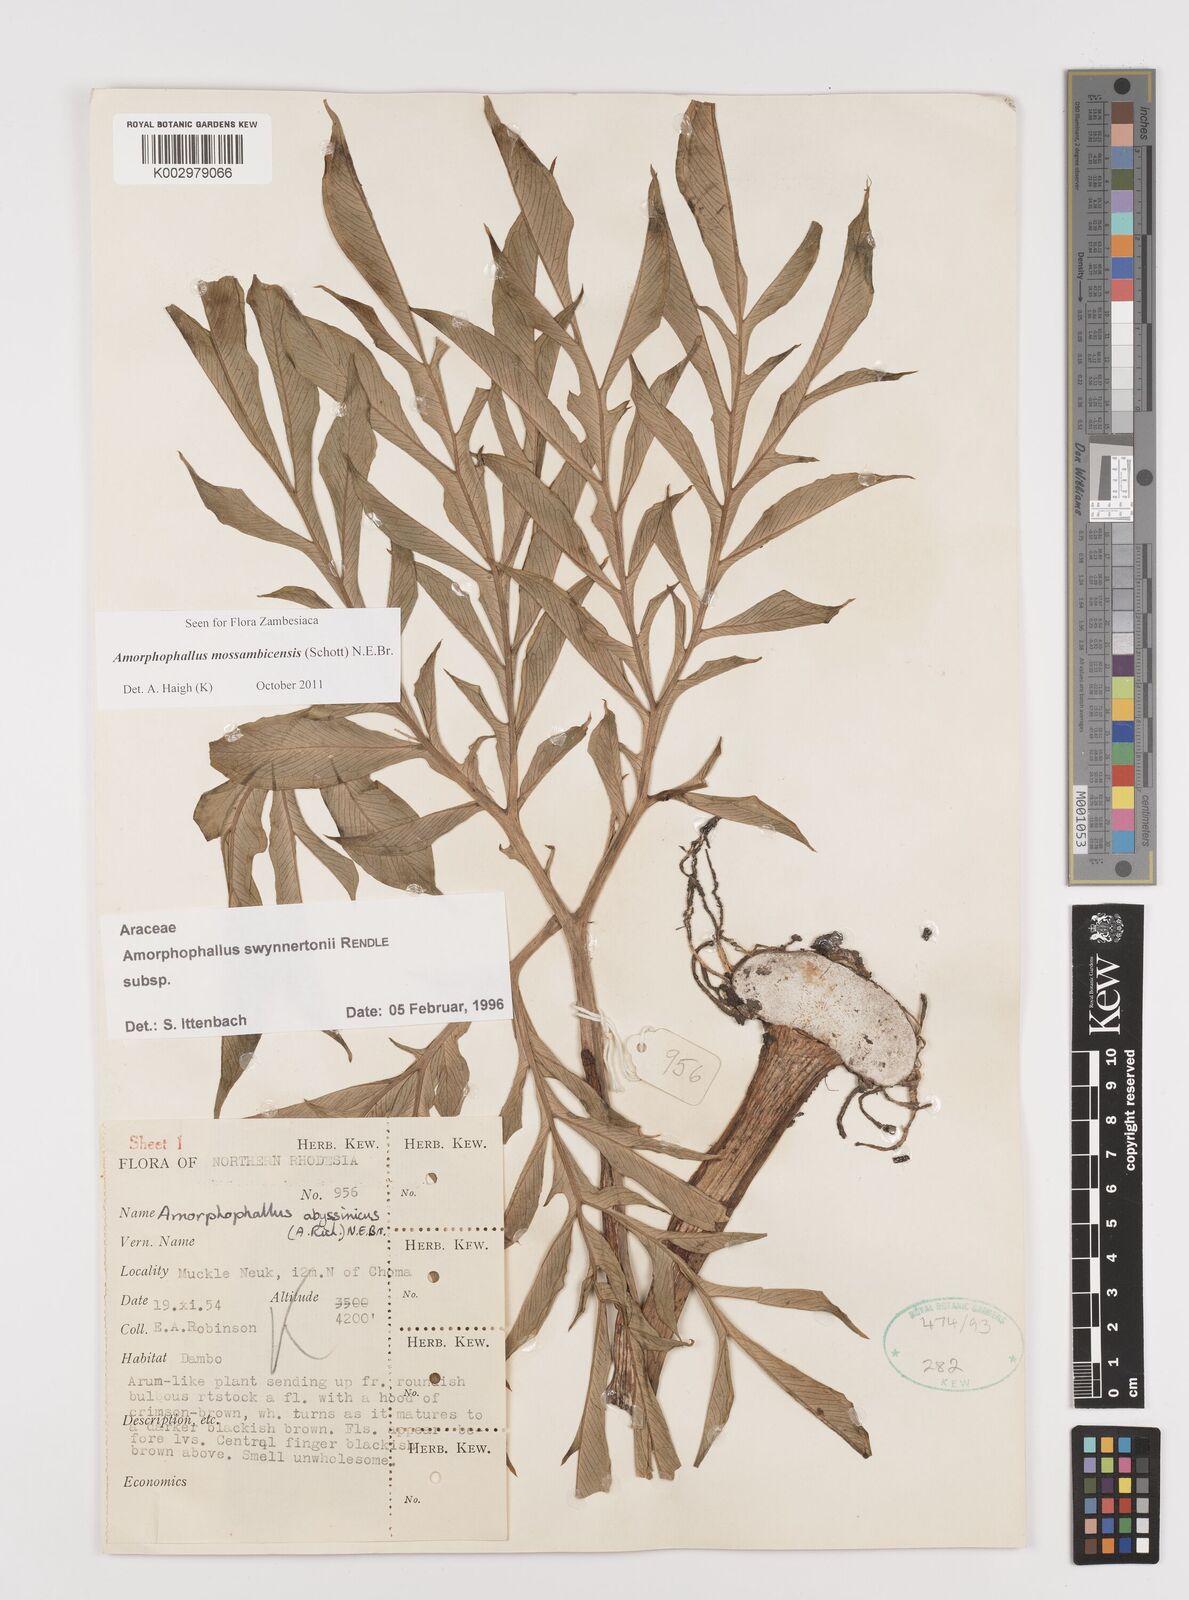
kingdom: Plantae
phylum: Tracheophyta
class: Liliopsida
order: Alismatales
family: Araceae
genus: Amorphophallus
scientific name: Amorphophallus mossambicensis
